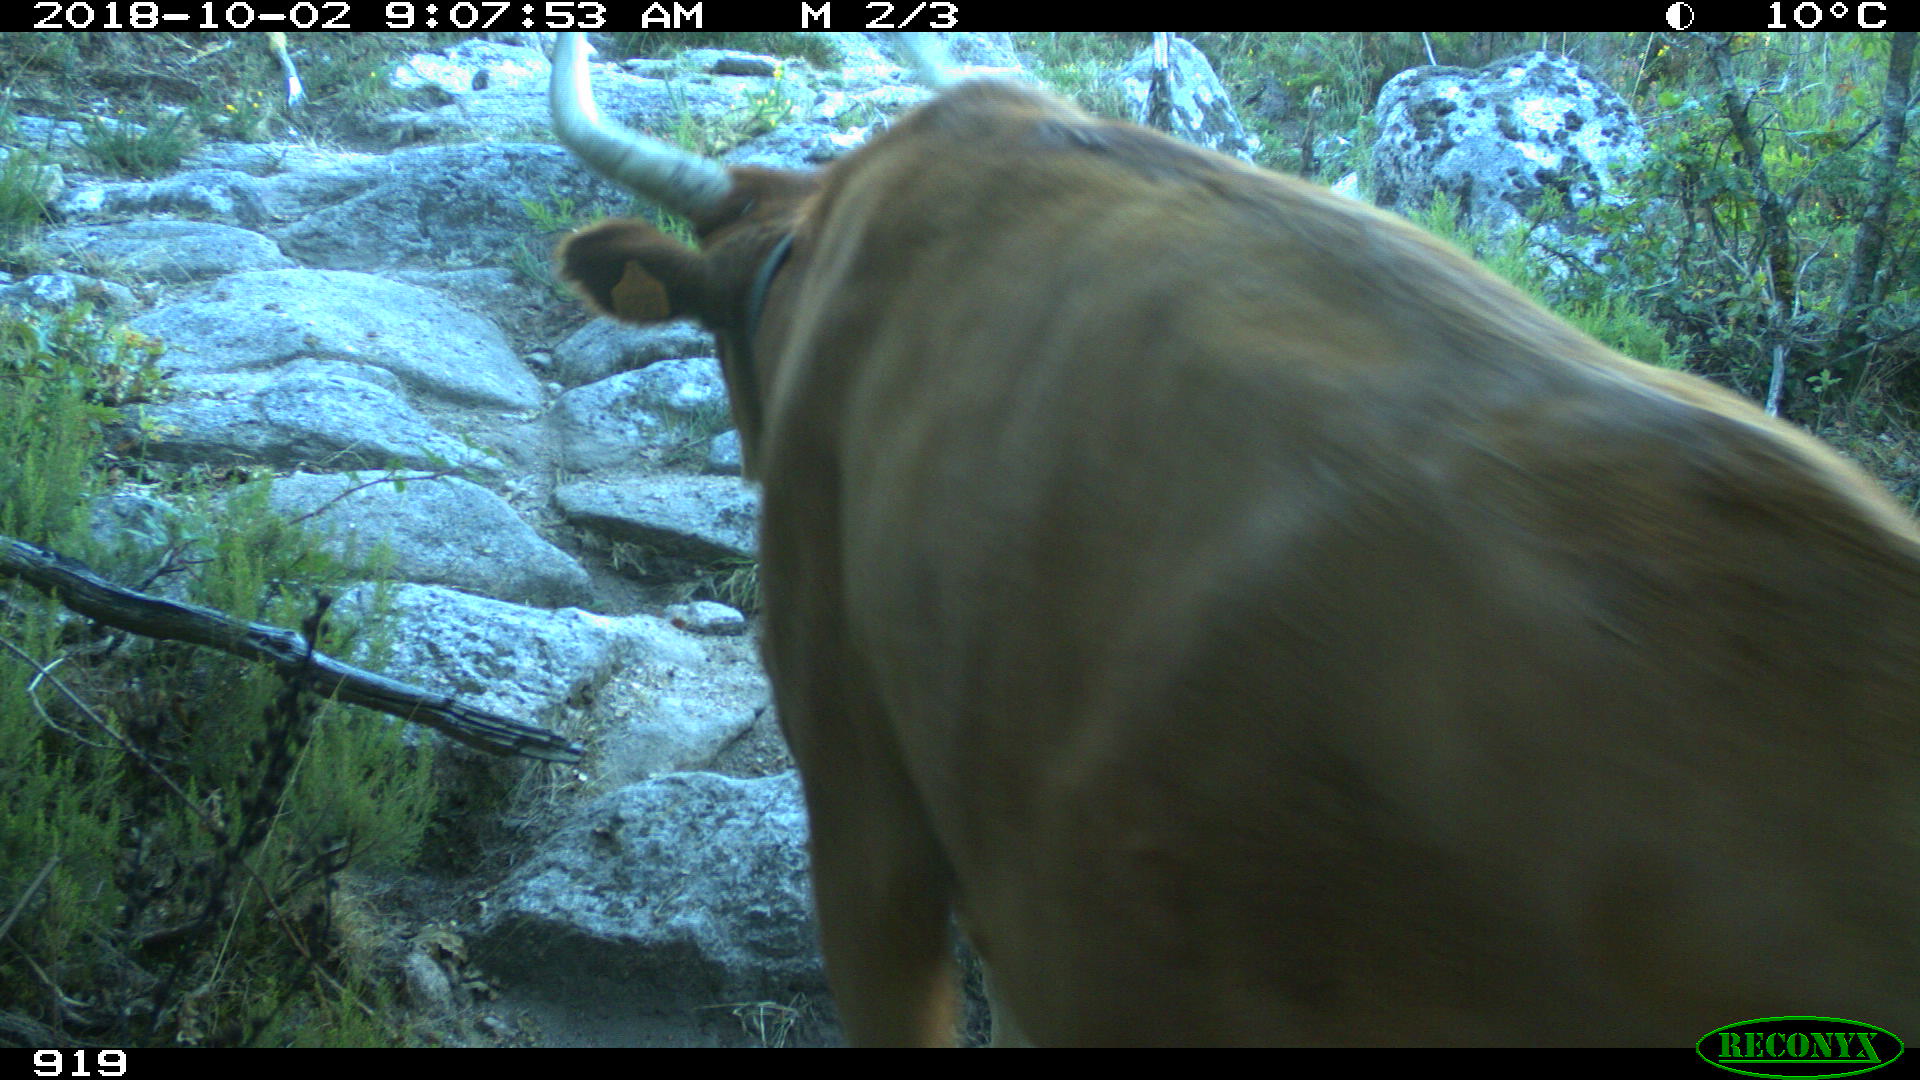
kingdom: Animalia
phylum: Chordata
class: Mammalia
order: Artiodactyla
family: Bovidae
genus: Bos
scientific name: Bos taurus
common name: Domesticated cattle
